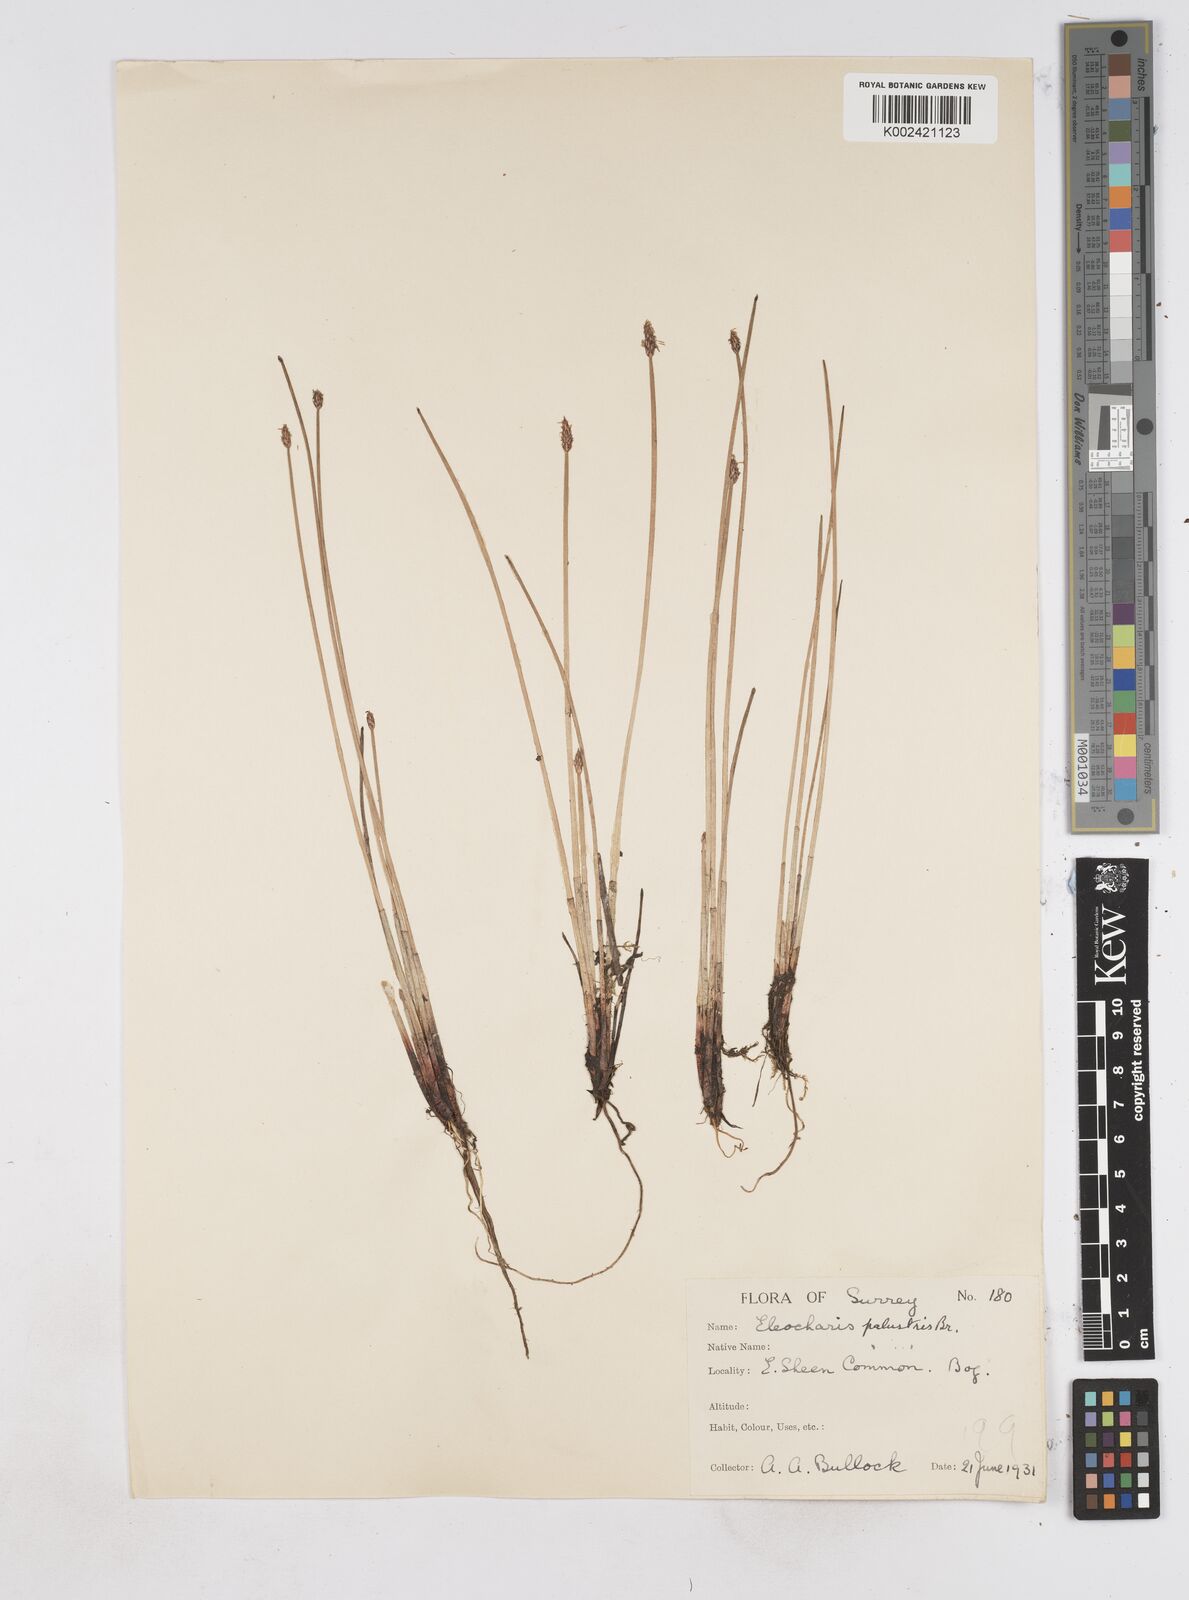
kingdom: Plantae
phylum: Tracheophyta
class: Liliopsida
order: Poales
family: Cyperaceae
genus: Eleocharis
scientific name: Eleocharis palustris
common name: Common spike-rush
